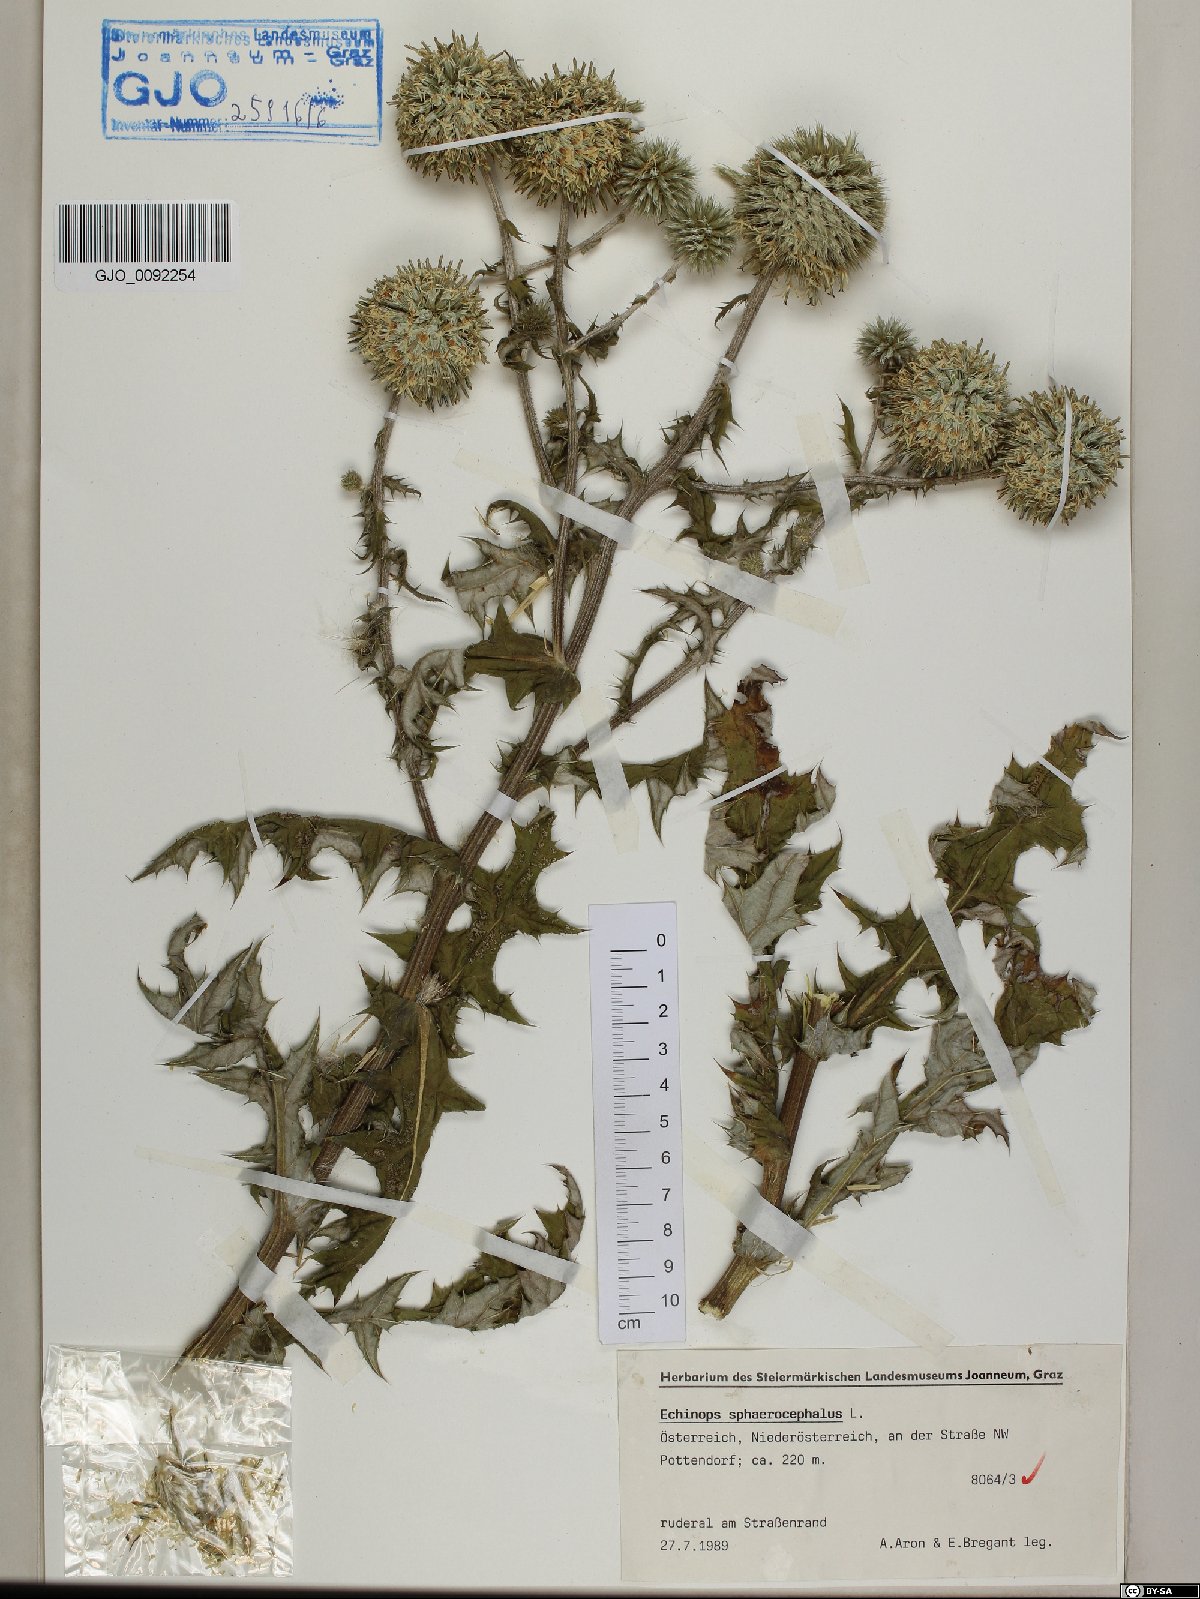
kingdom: Plantae
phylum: Tracheophyta
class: Magnoliopsida
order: Asterales
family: Asteraceae
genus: Echinops
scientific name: Echinops sphaerocephalus
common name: Glandular globe-thistle
